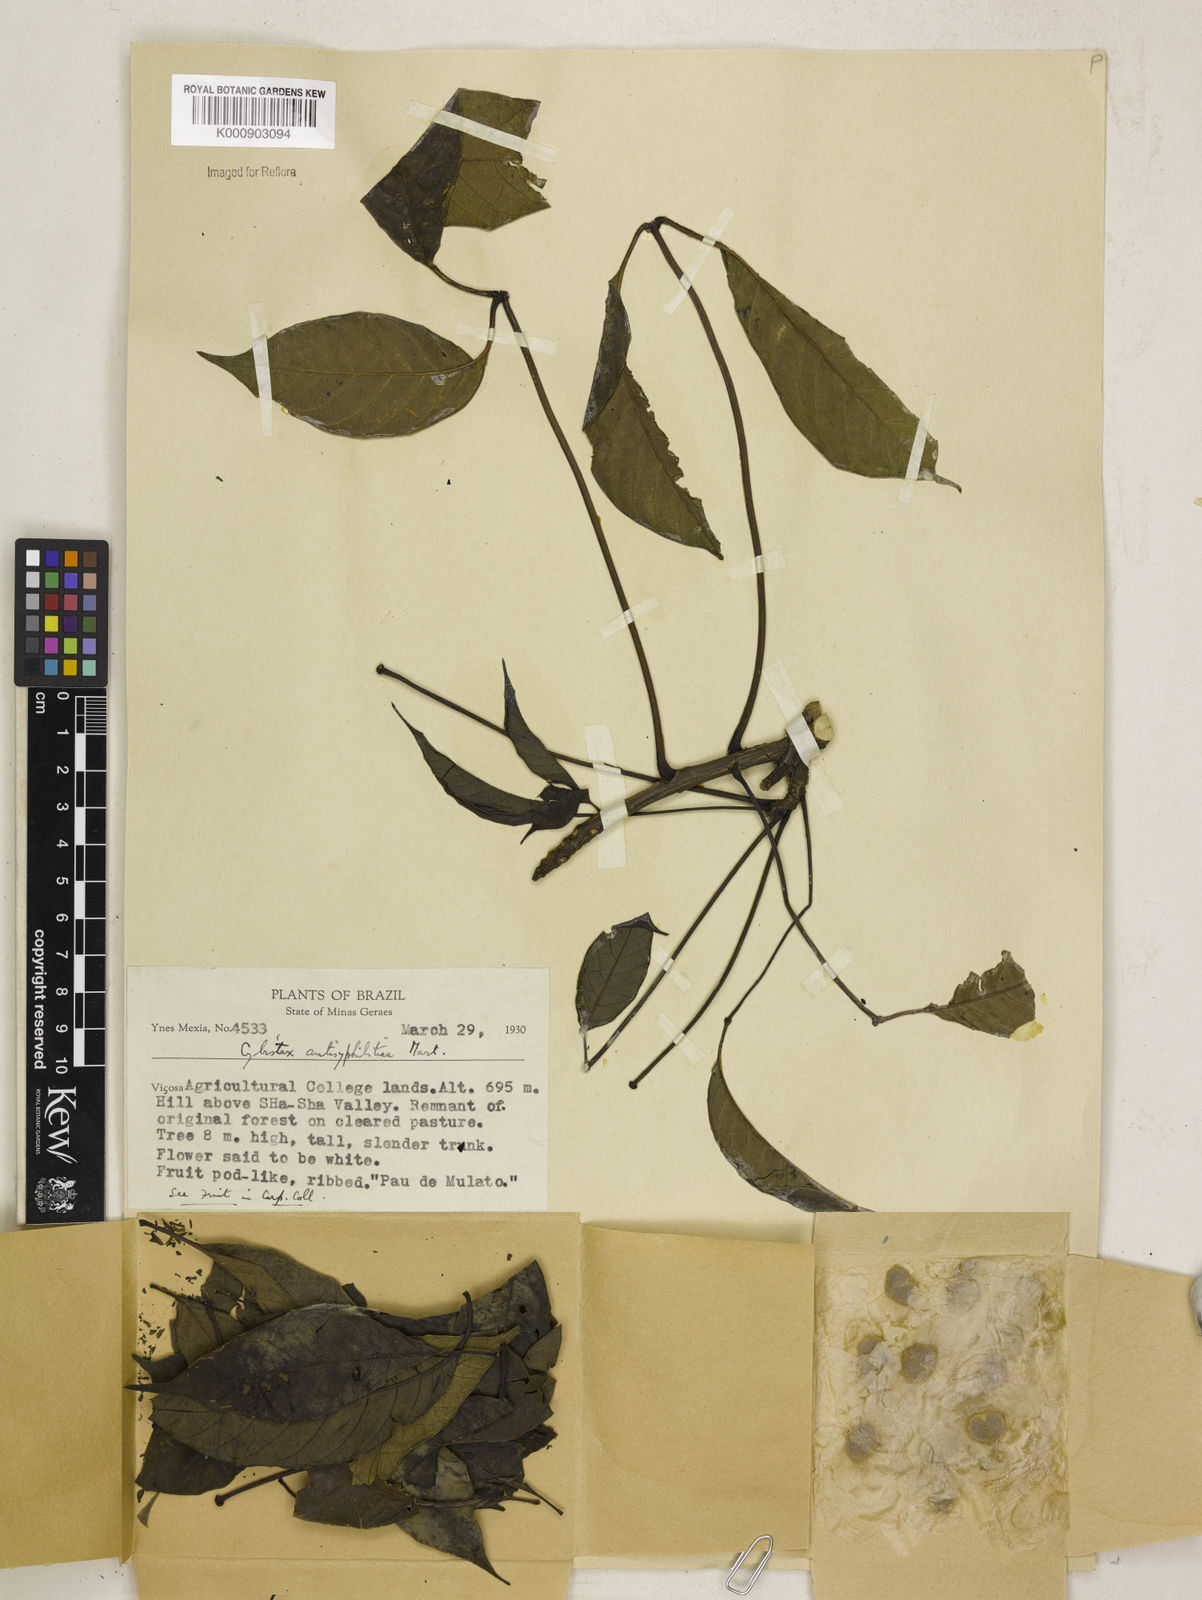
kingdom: Plantae
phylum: Tracheophyta
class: Magnoliopsida
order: Lamiales
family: Bignoniaceae
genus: Cybistax
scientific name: Cybistax antisyphilitica
